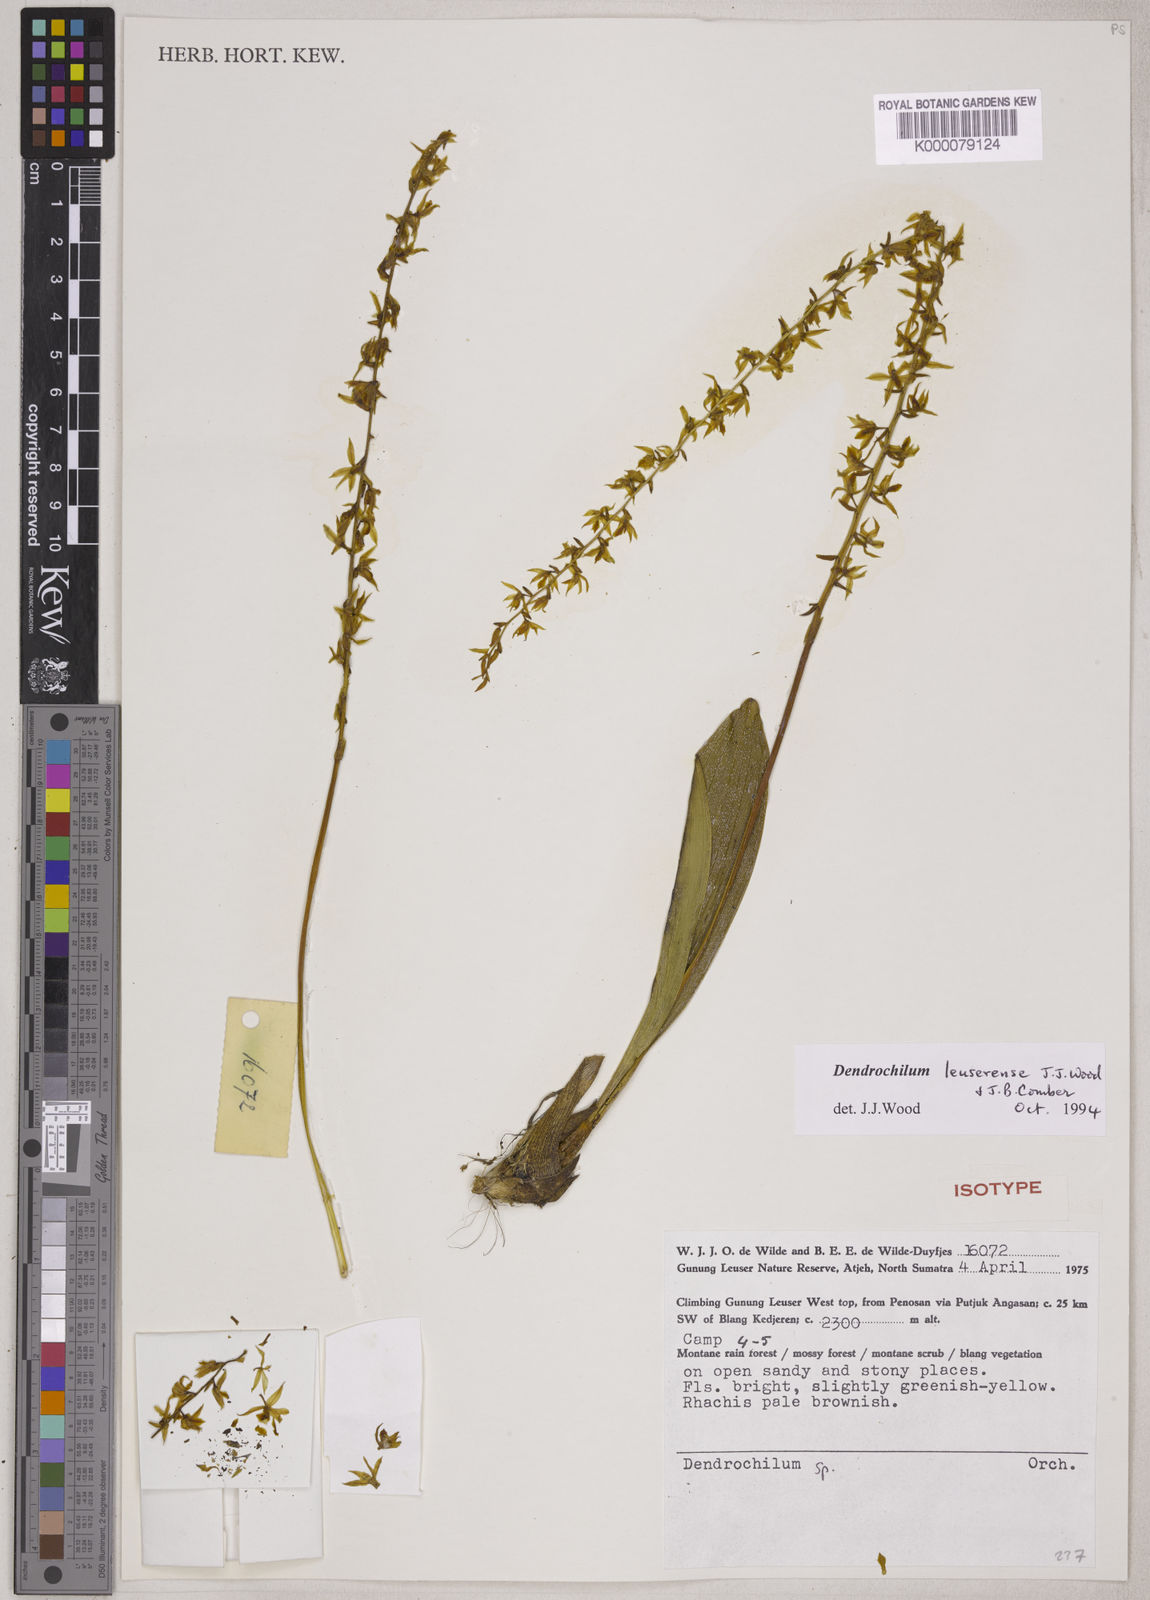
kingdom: Plantae
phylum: Tracheophyta
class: Liliopsida
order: Asparagales
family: Orchidaceae
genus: Coelogyne
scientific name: Coelogyne leuserensis
